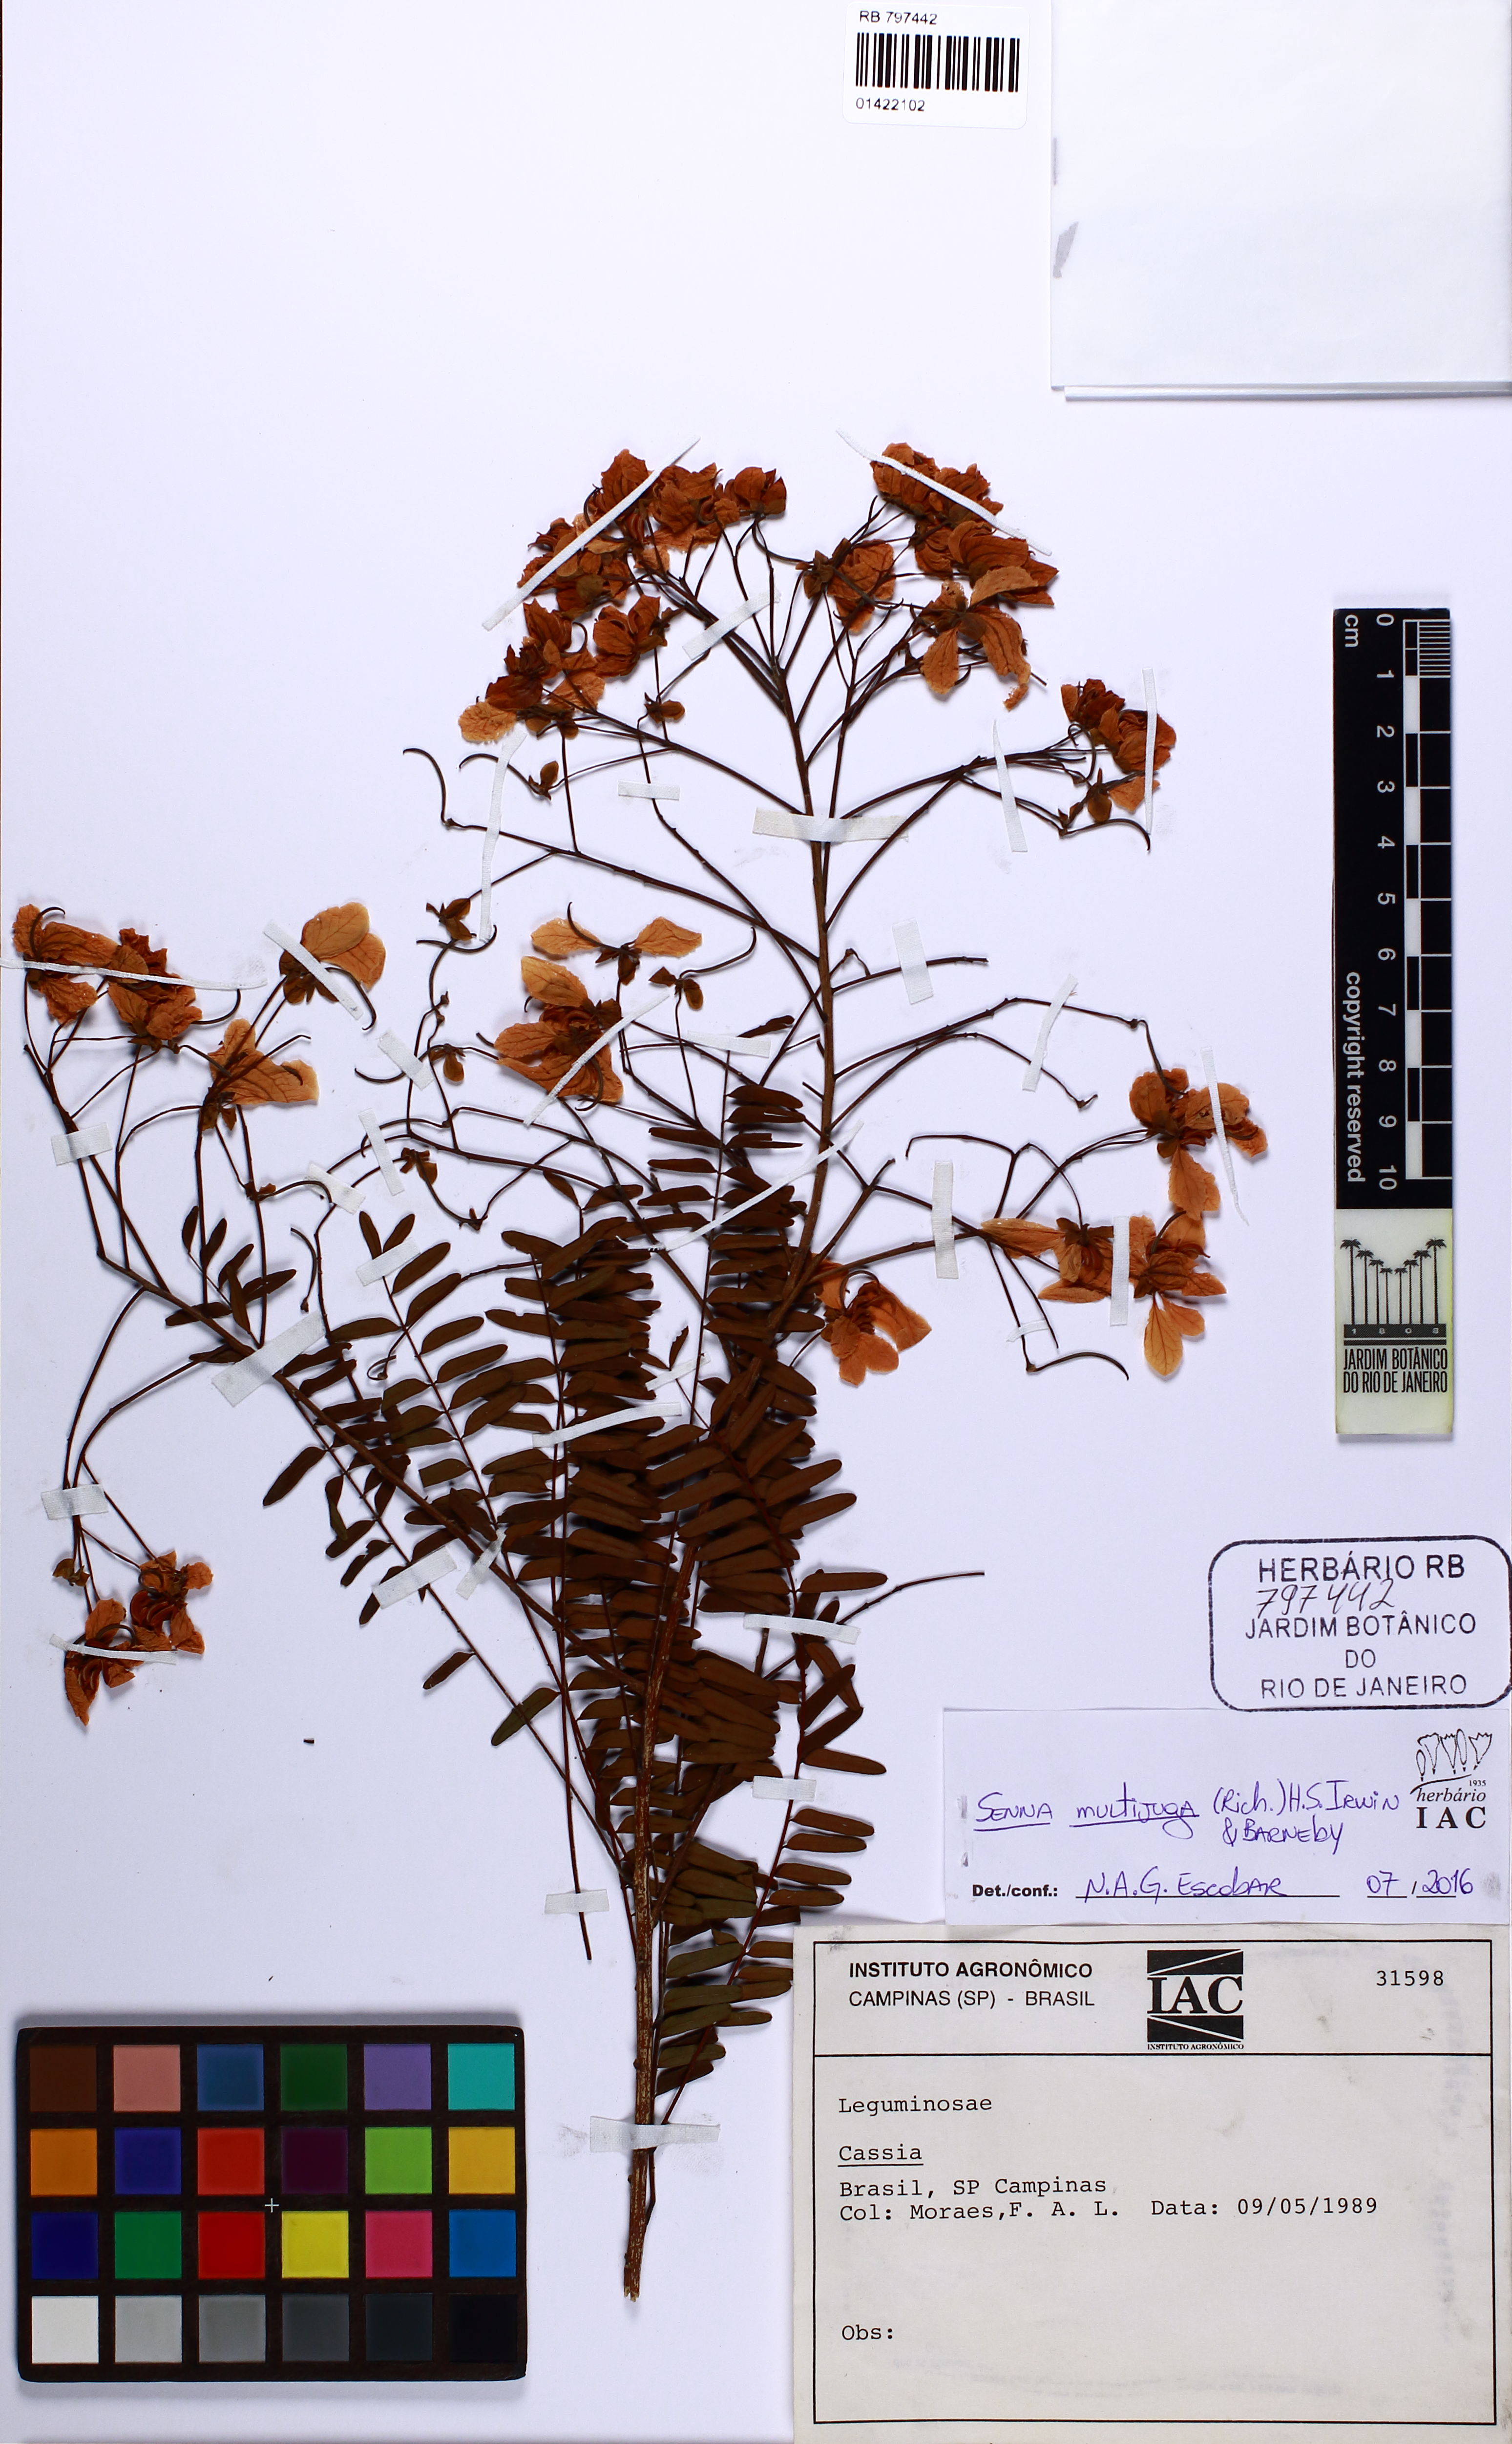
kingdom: Plantae
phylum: Tracheophyta
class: Magnoliopsida
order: Fabales
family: Fabaceae
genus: Senna
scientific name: Senna multijuga
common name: False sicklepod
